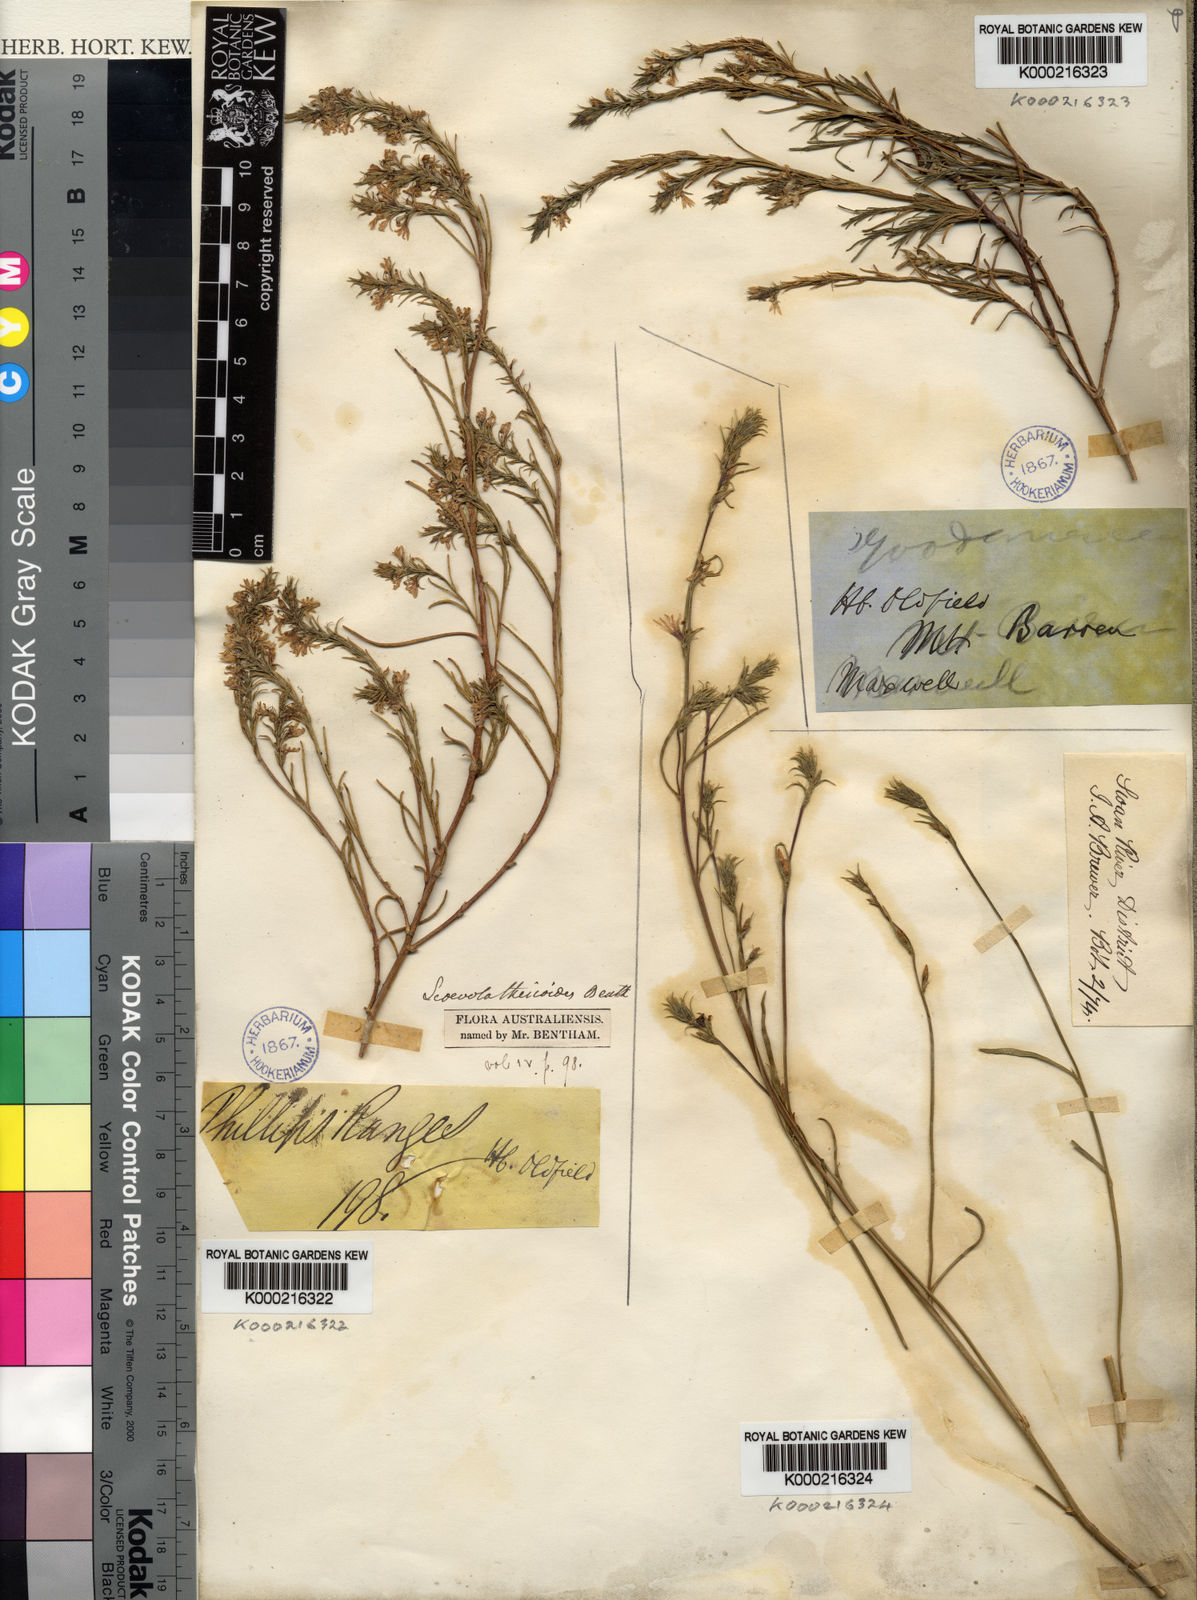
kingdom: Plantae
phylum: Tracheophyta
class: Magnoliopsida
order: Asterales
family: Goodeniaceae
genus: Scaevola
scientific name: Scaevola thesioides
